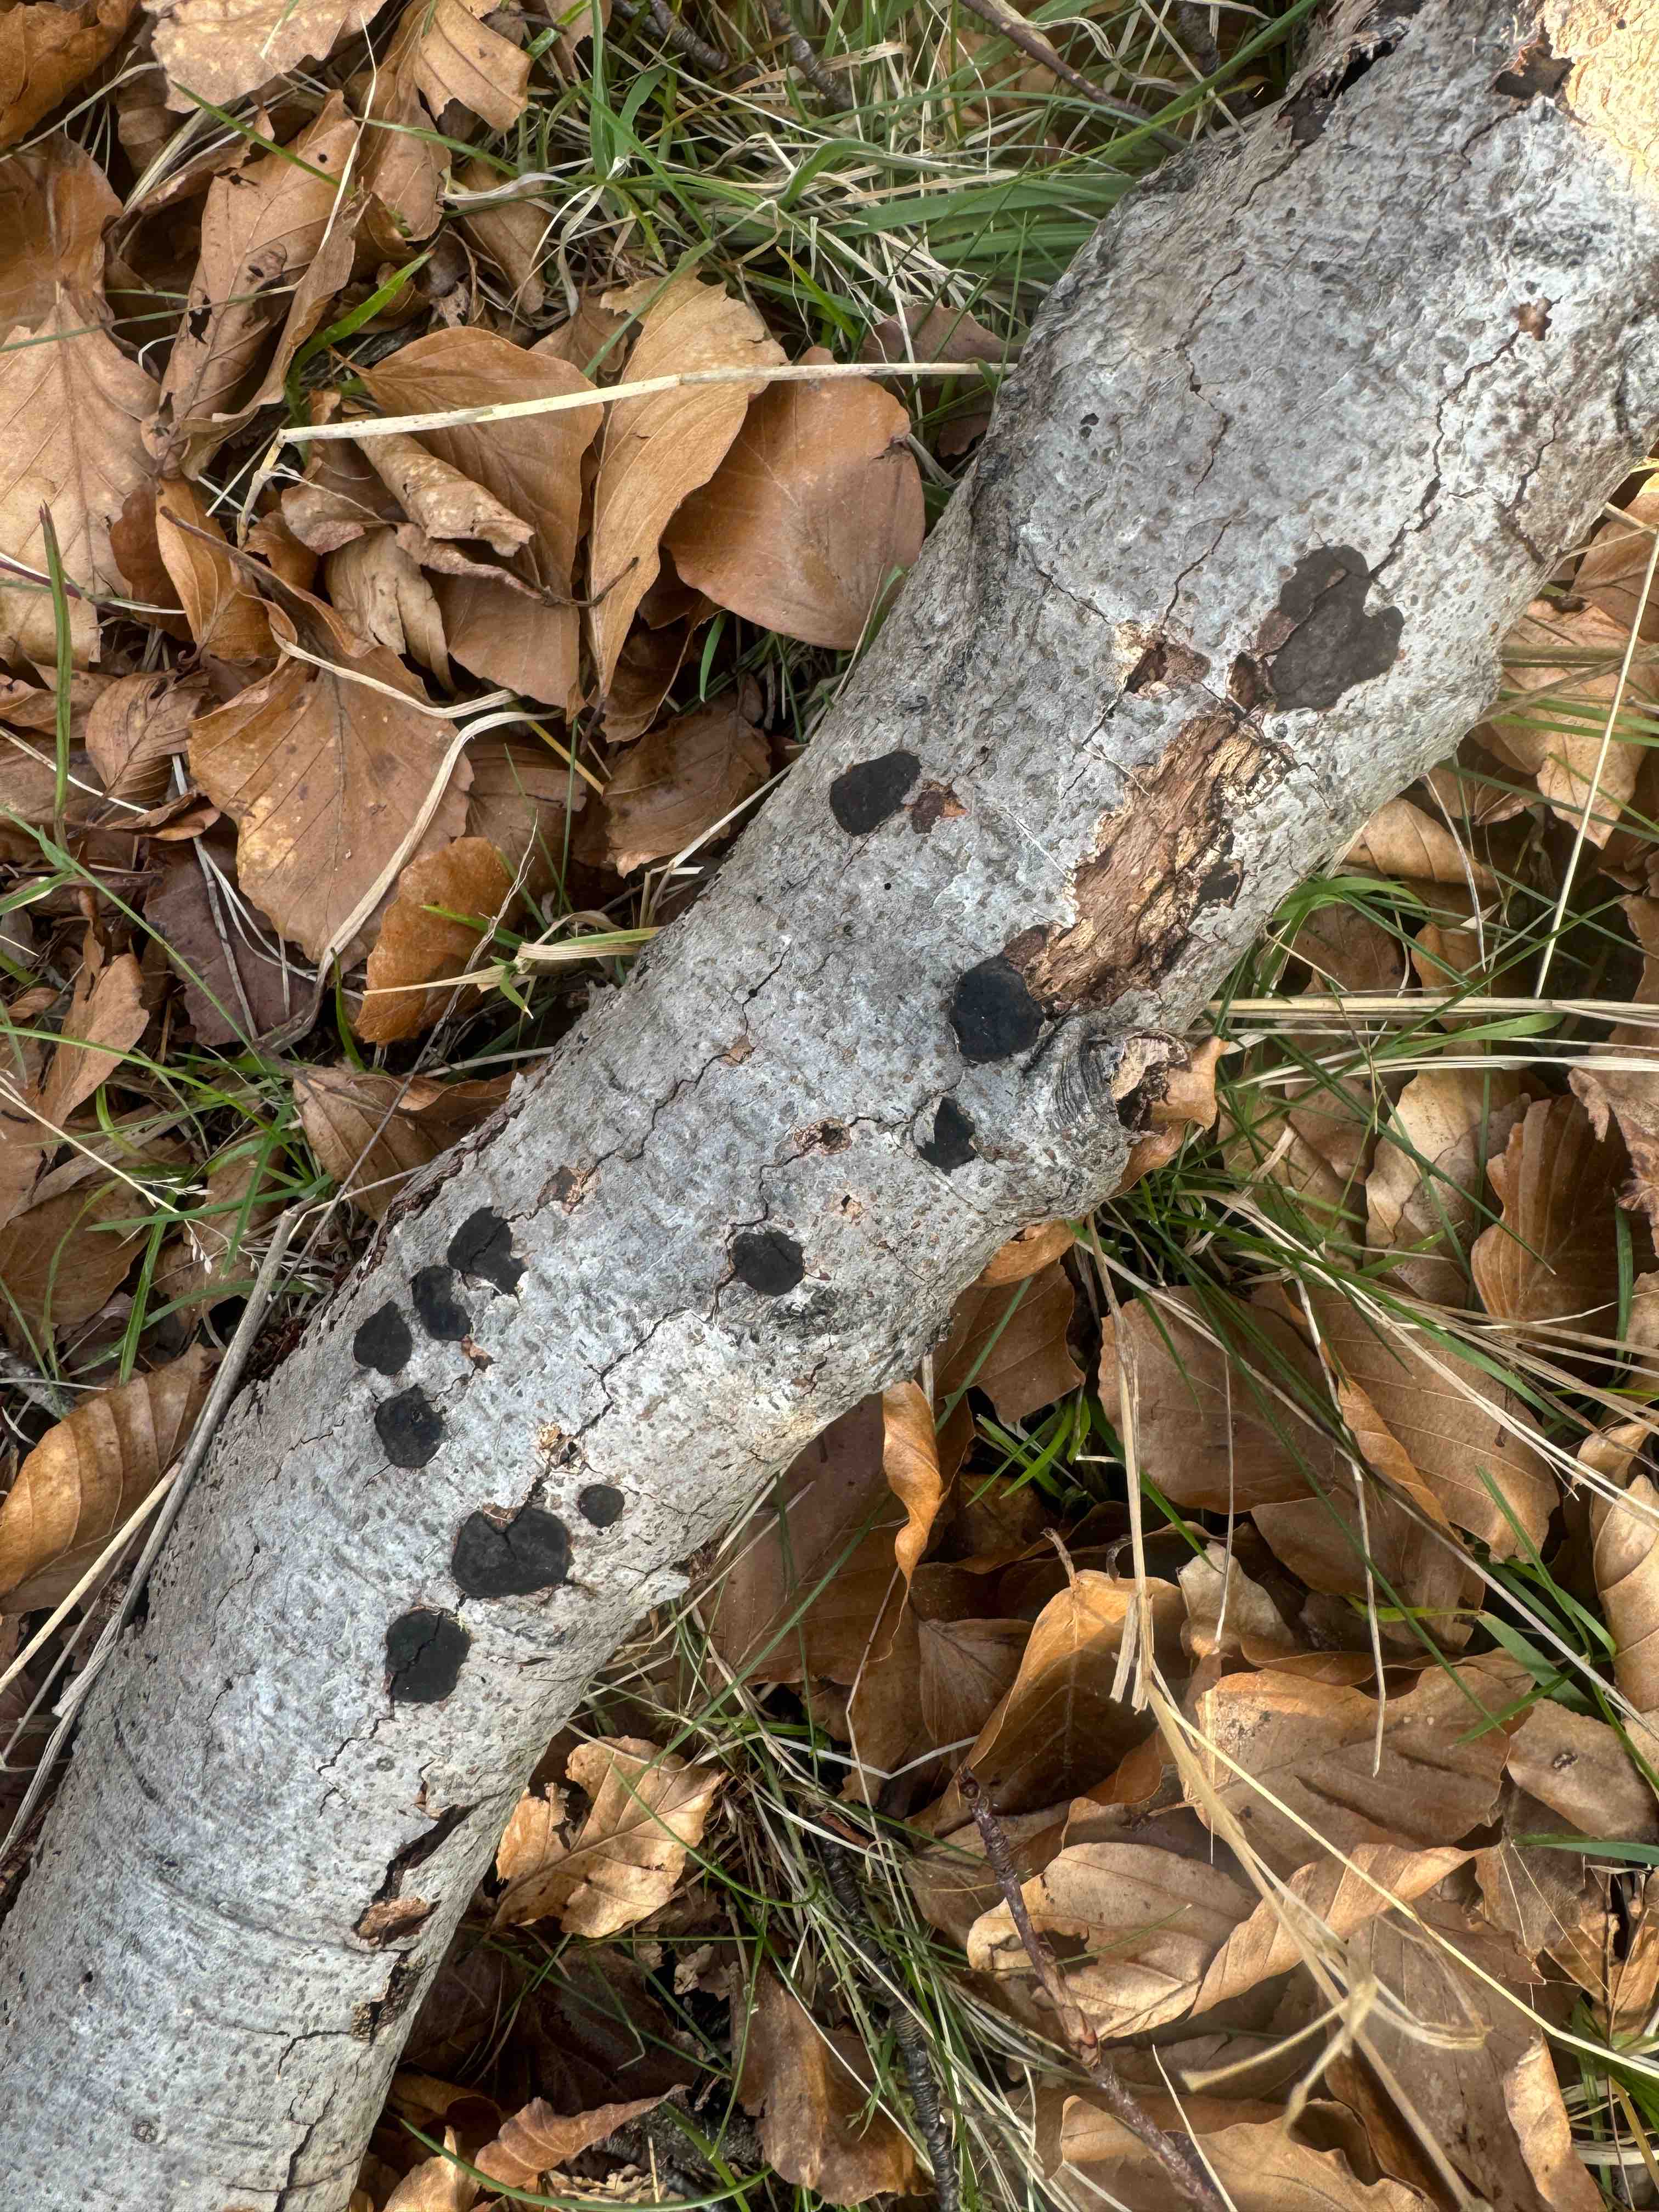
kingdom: Fungi
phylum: Ascomycota
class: Sordariomycetes
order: Xylariales
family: Graphostromataceae
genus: Biscogniauxia
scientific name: Biscogniauxia nummularia
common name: bøge-kulskive
